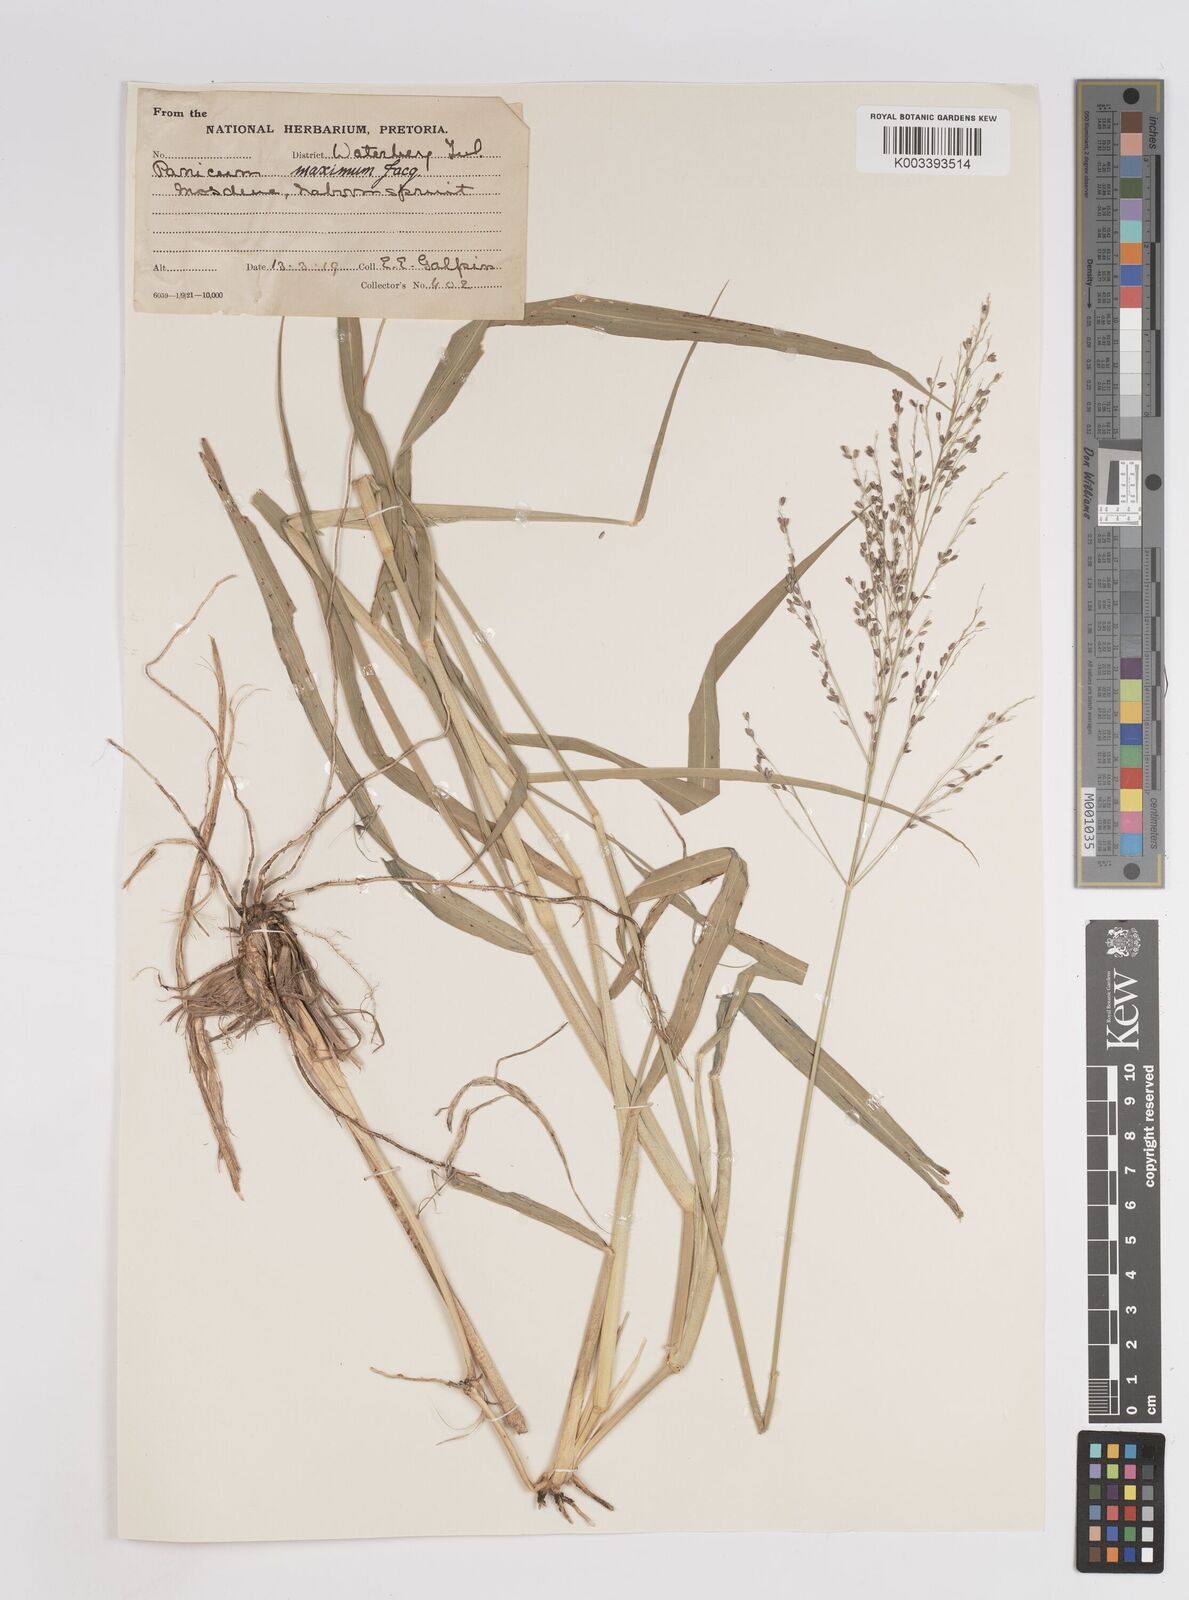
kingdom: Plantae
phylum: Tracheophyta
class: Liliopsida
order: Poales
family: Poaceae
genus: Megathyrsus
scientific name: Megathyrsus maximus
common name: Guineagrass
